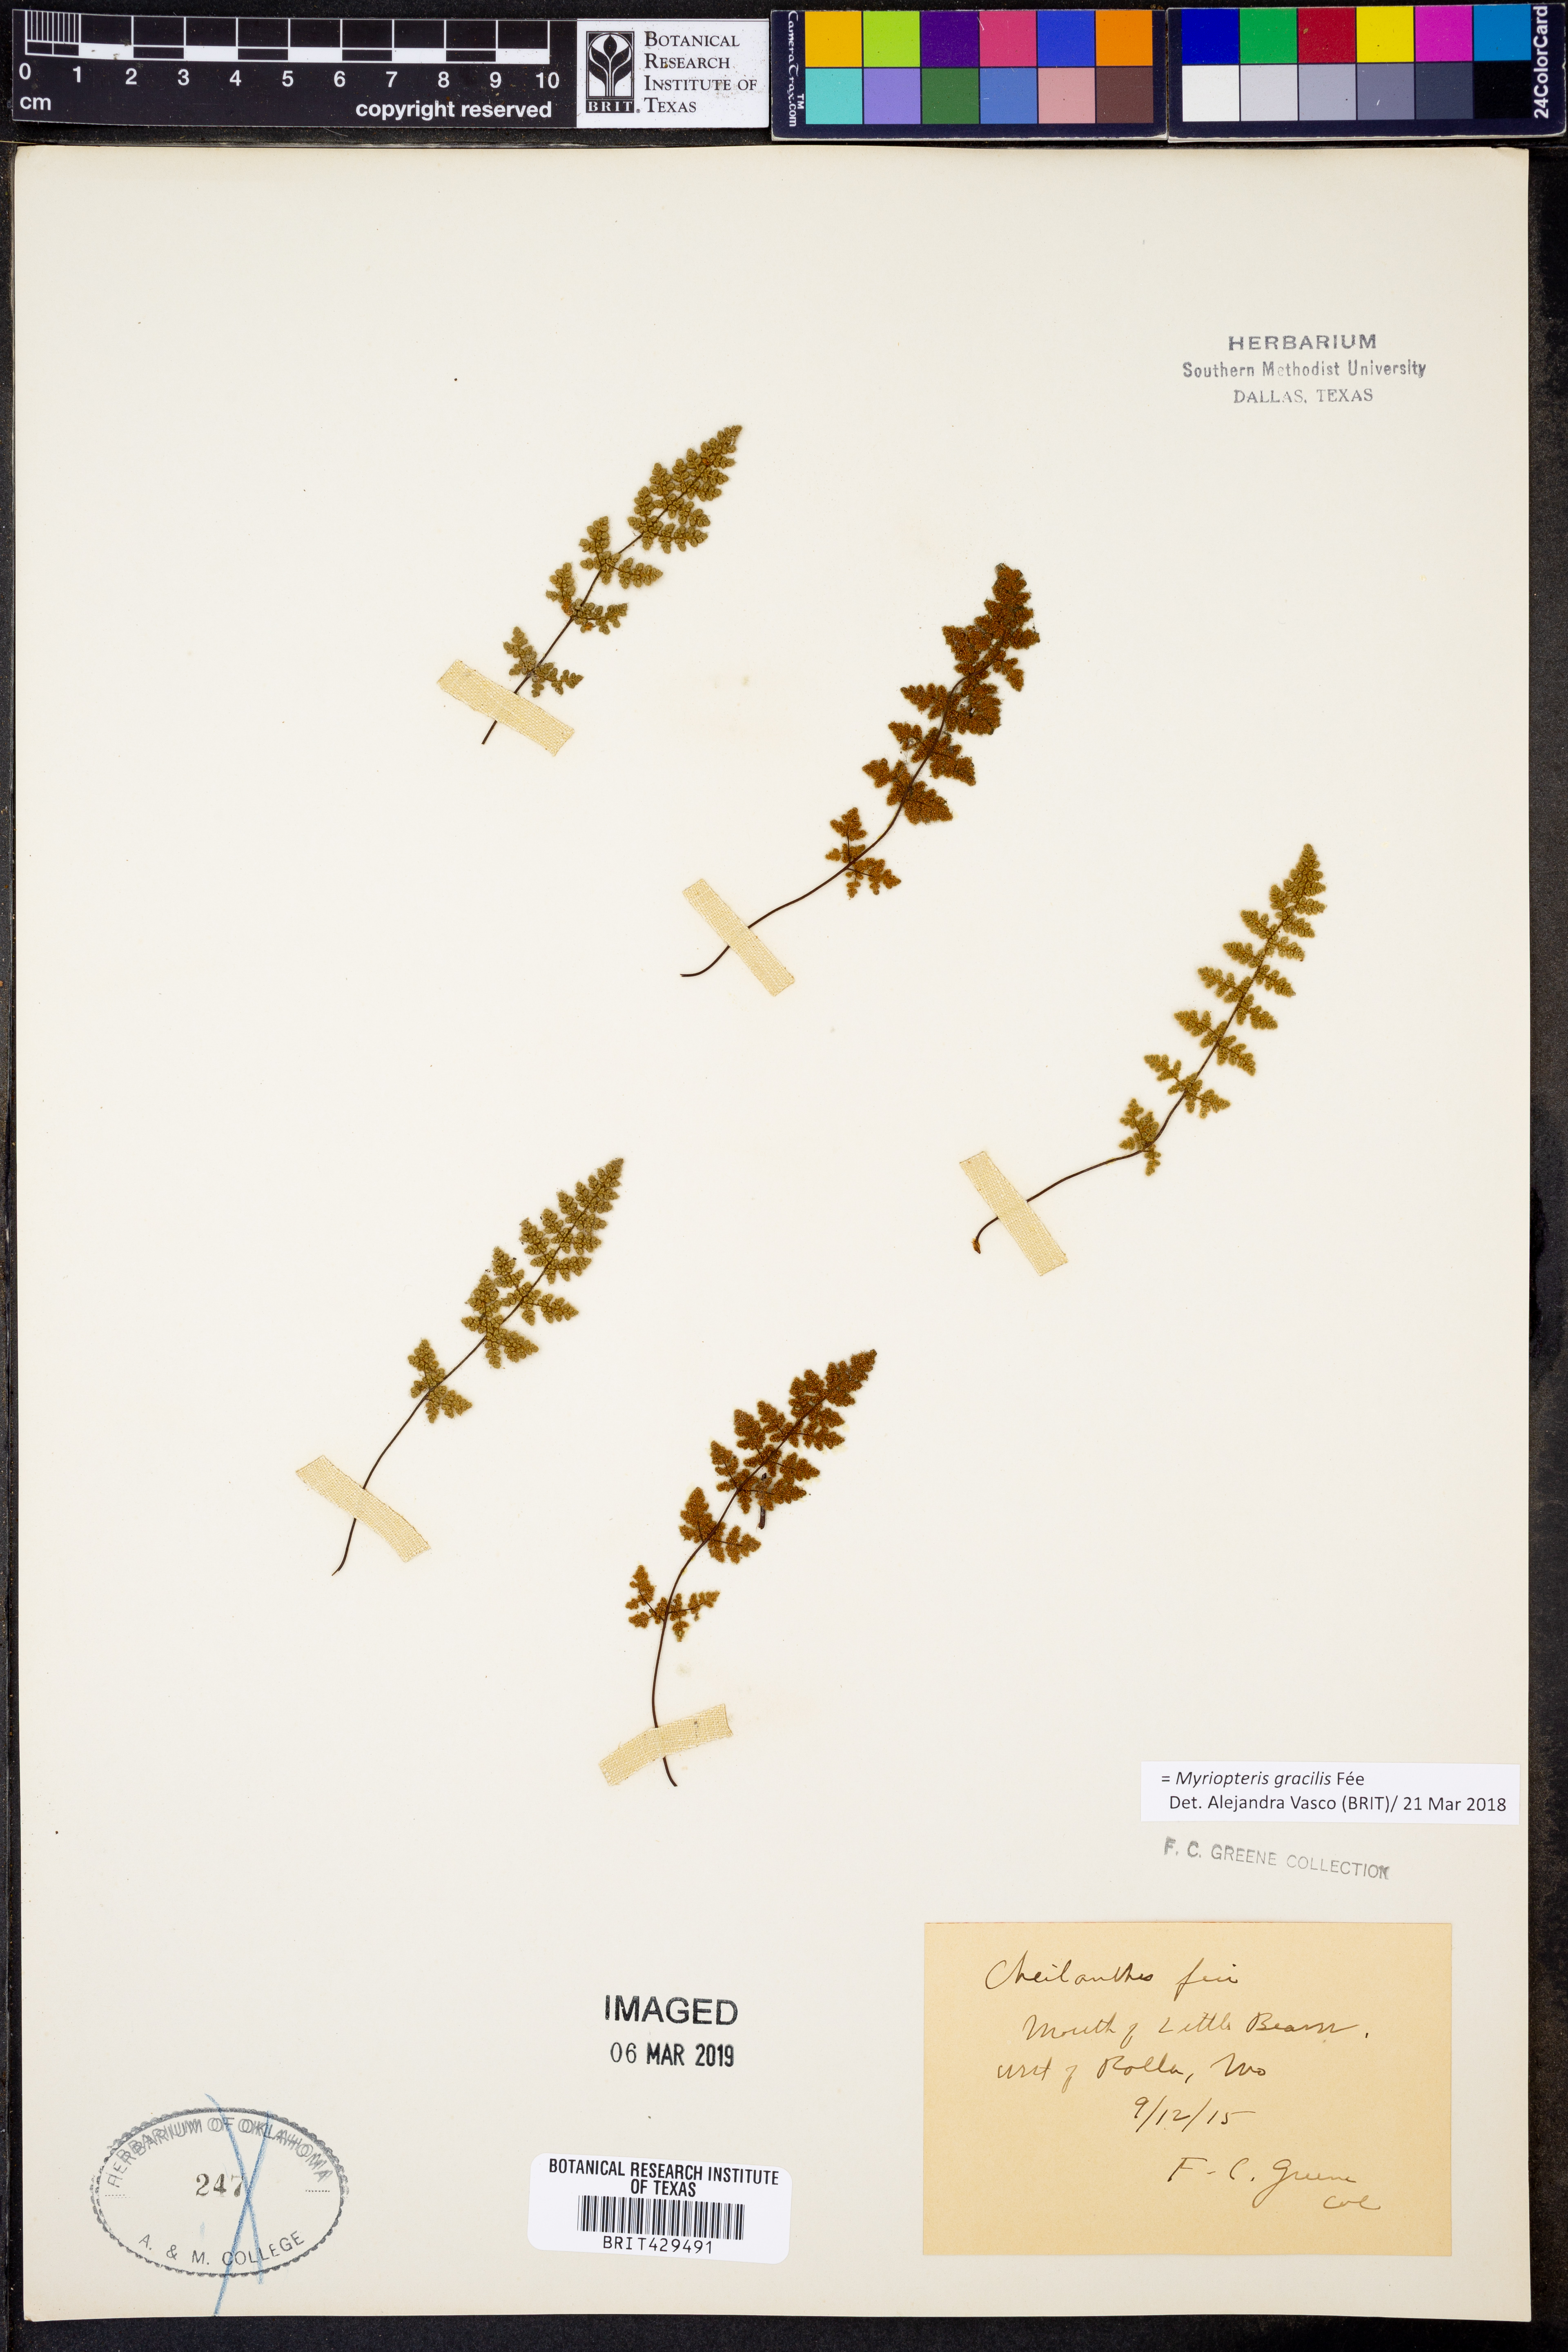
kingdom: Plantae
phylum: Tracheophyta
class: Polypodiopsida
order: Polypodiales
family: Pteridaceae
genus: Myriopteris
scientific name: Myriopteris gracilis
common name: Fee's lip fern
